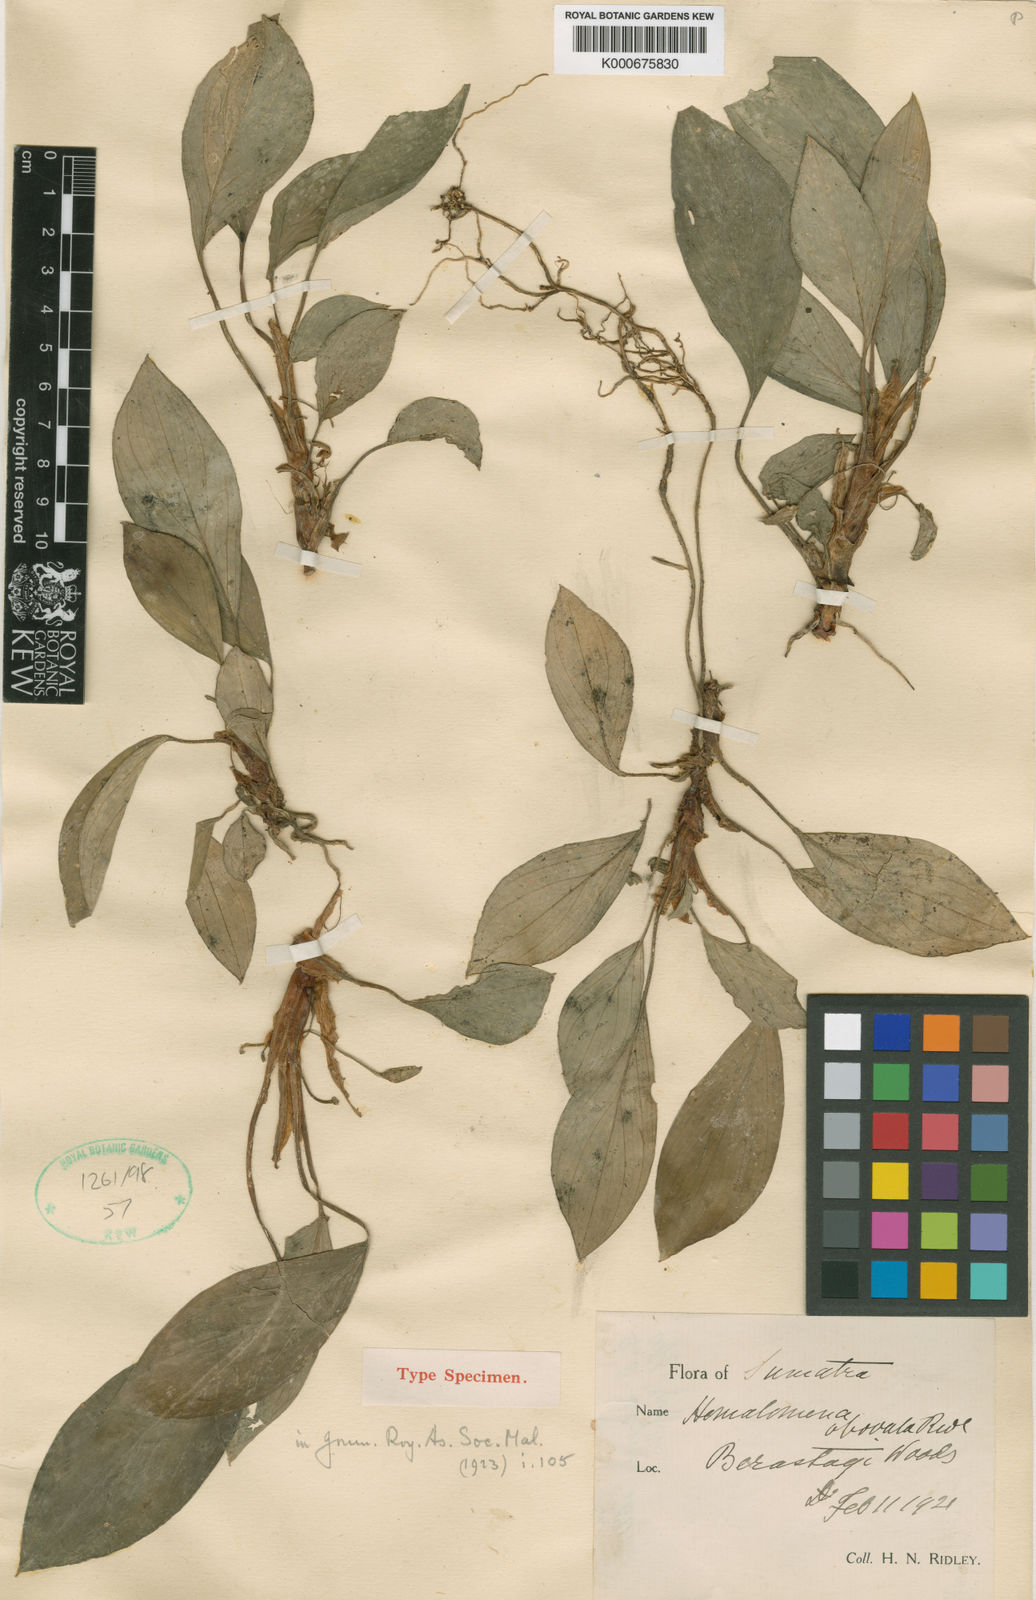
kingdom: Plantae
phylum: Tracheophyta
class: Liliopsida
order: Alismatales
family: Araceae
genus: Homalomena
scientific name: Homalomena obovata
